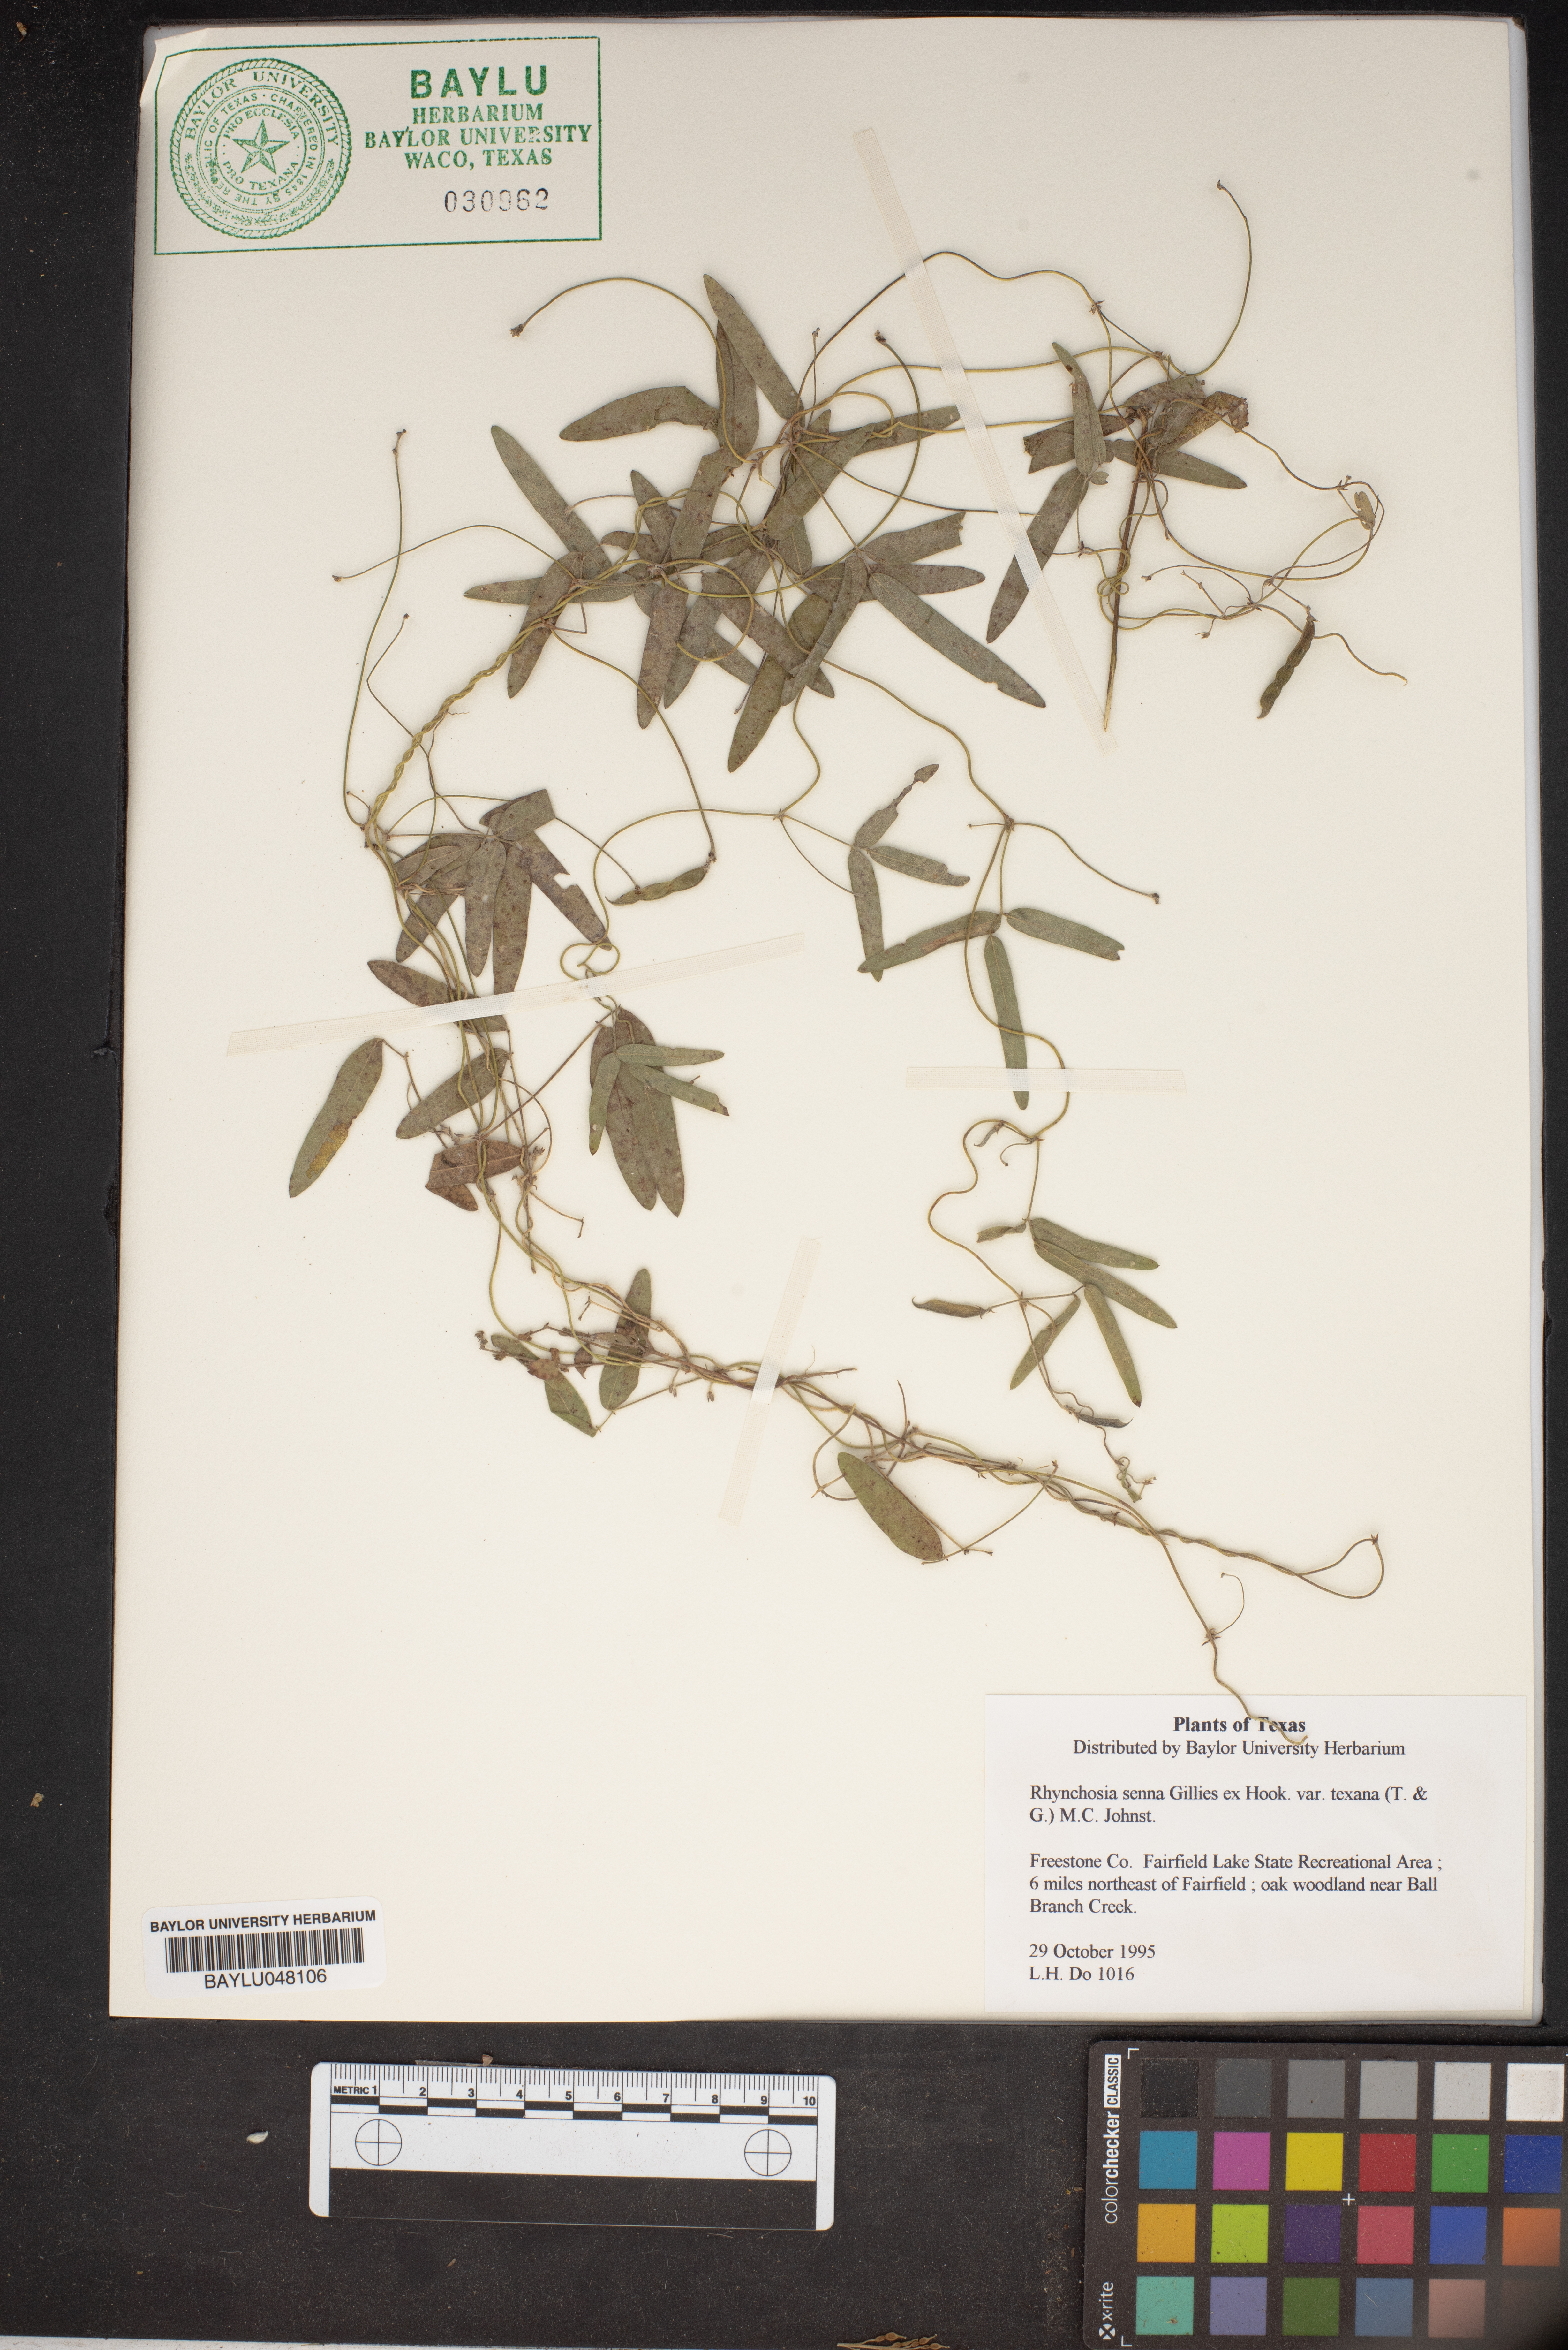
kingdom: Plantae
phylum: Tracheophyta
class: Magnoliopsida
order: Fabales
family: Fabaceae
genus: Rhynchosia
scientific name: Rhynchosia senna
